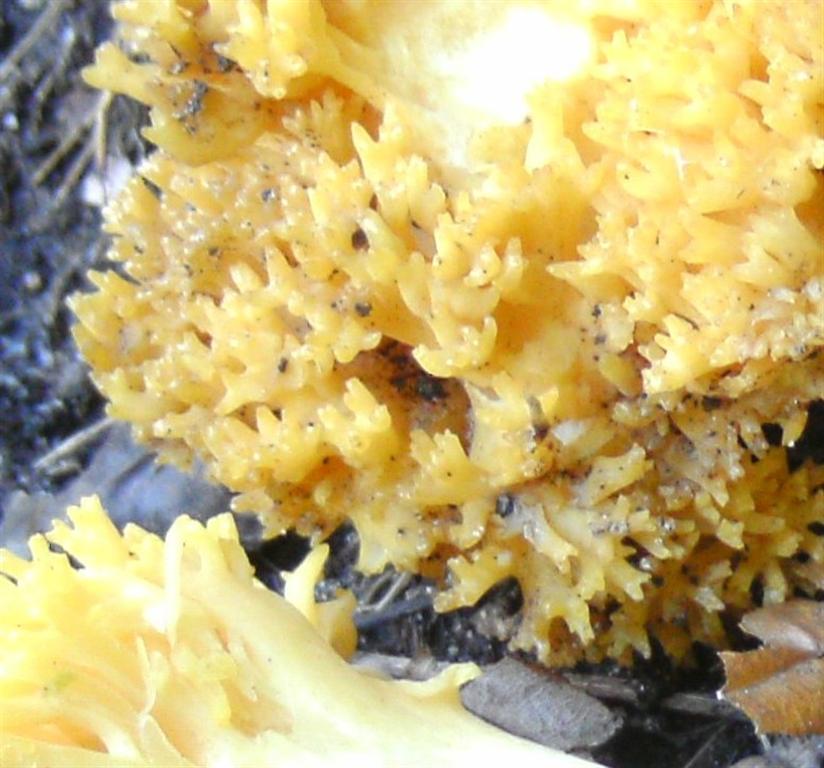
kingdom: Fungi
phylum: Basidiomycota
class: Agaricomycetes
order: Gomphales
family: Gomphaceae
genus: Ramaria
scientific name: Ramaria krieglsteineri
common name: smalsporet koralsvamp
